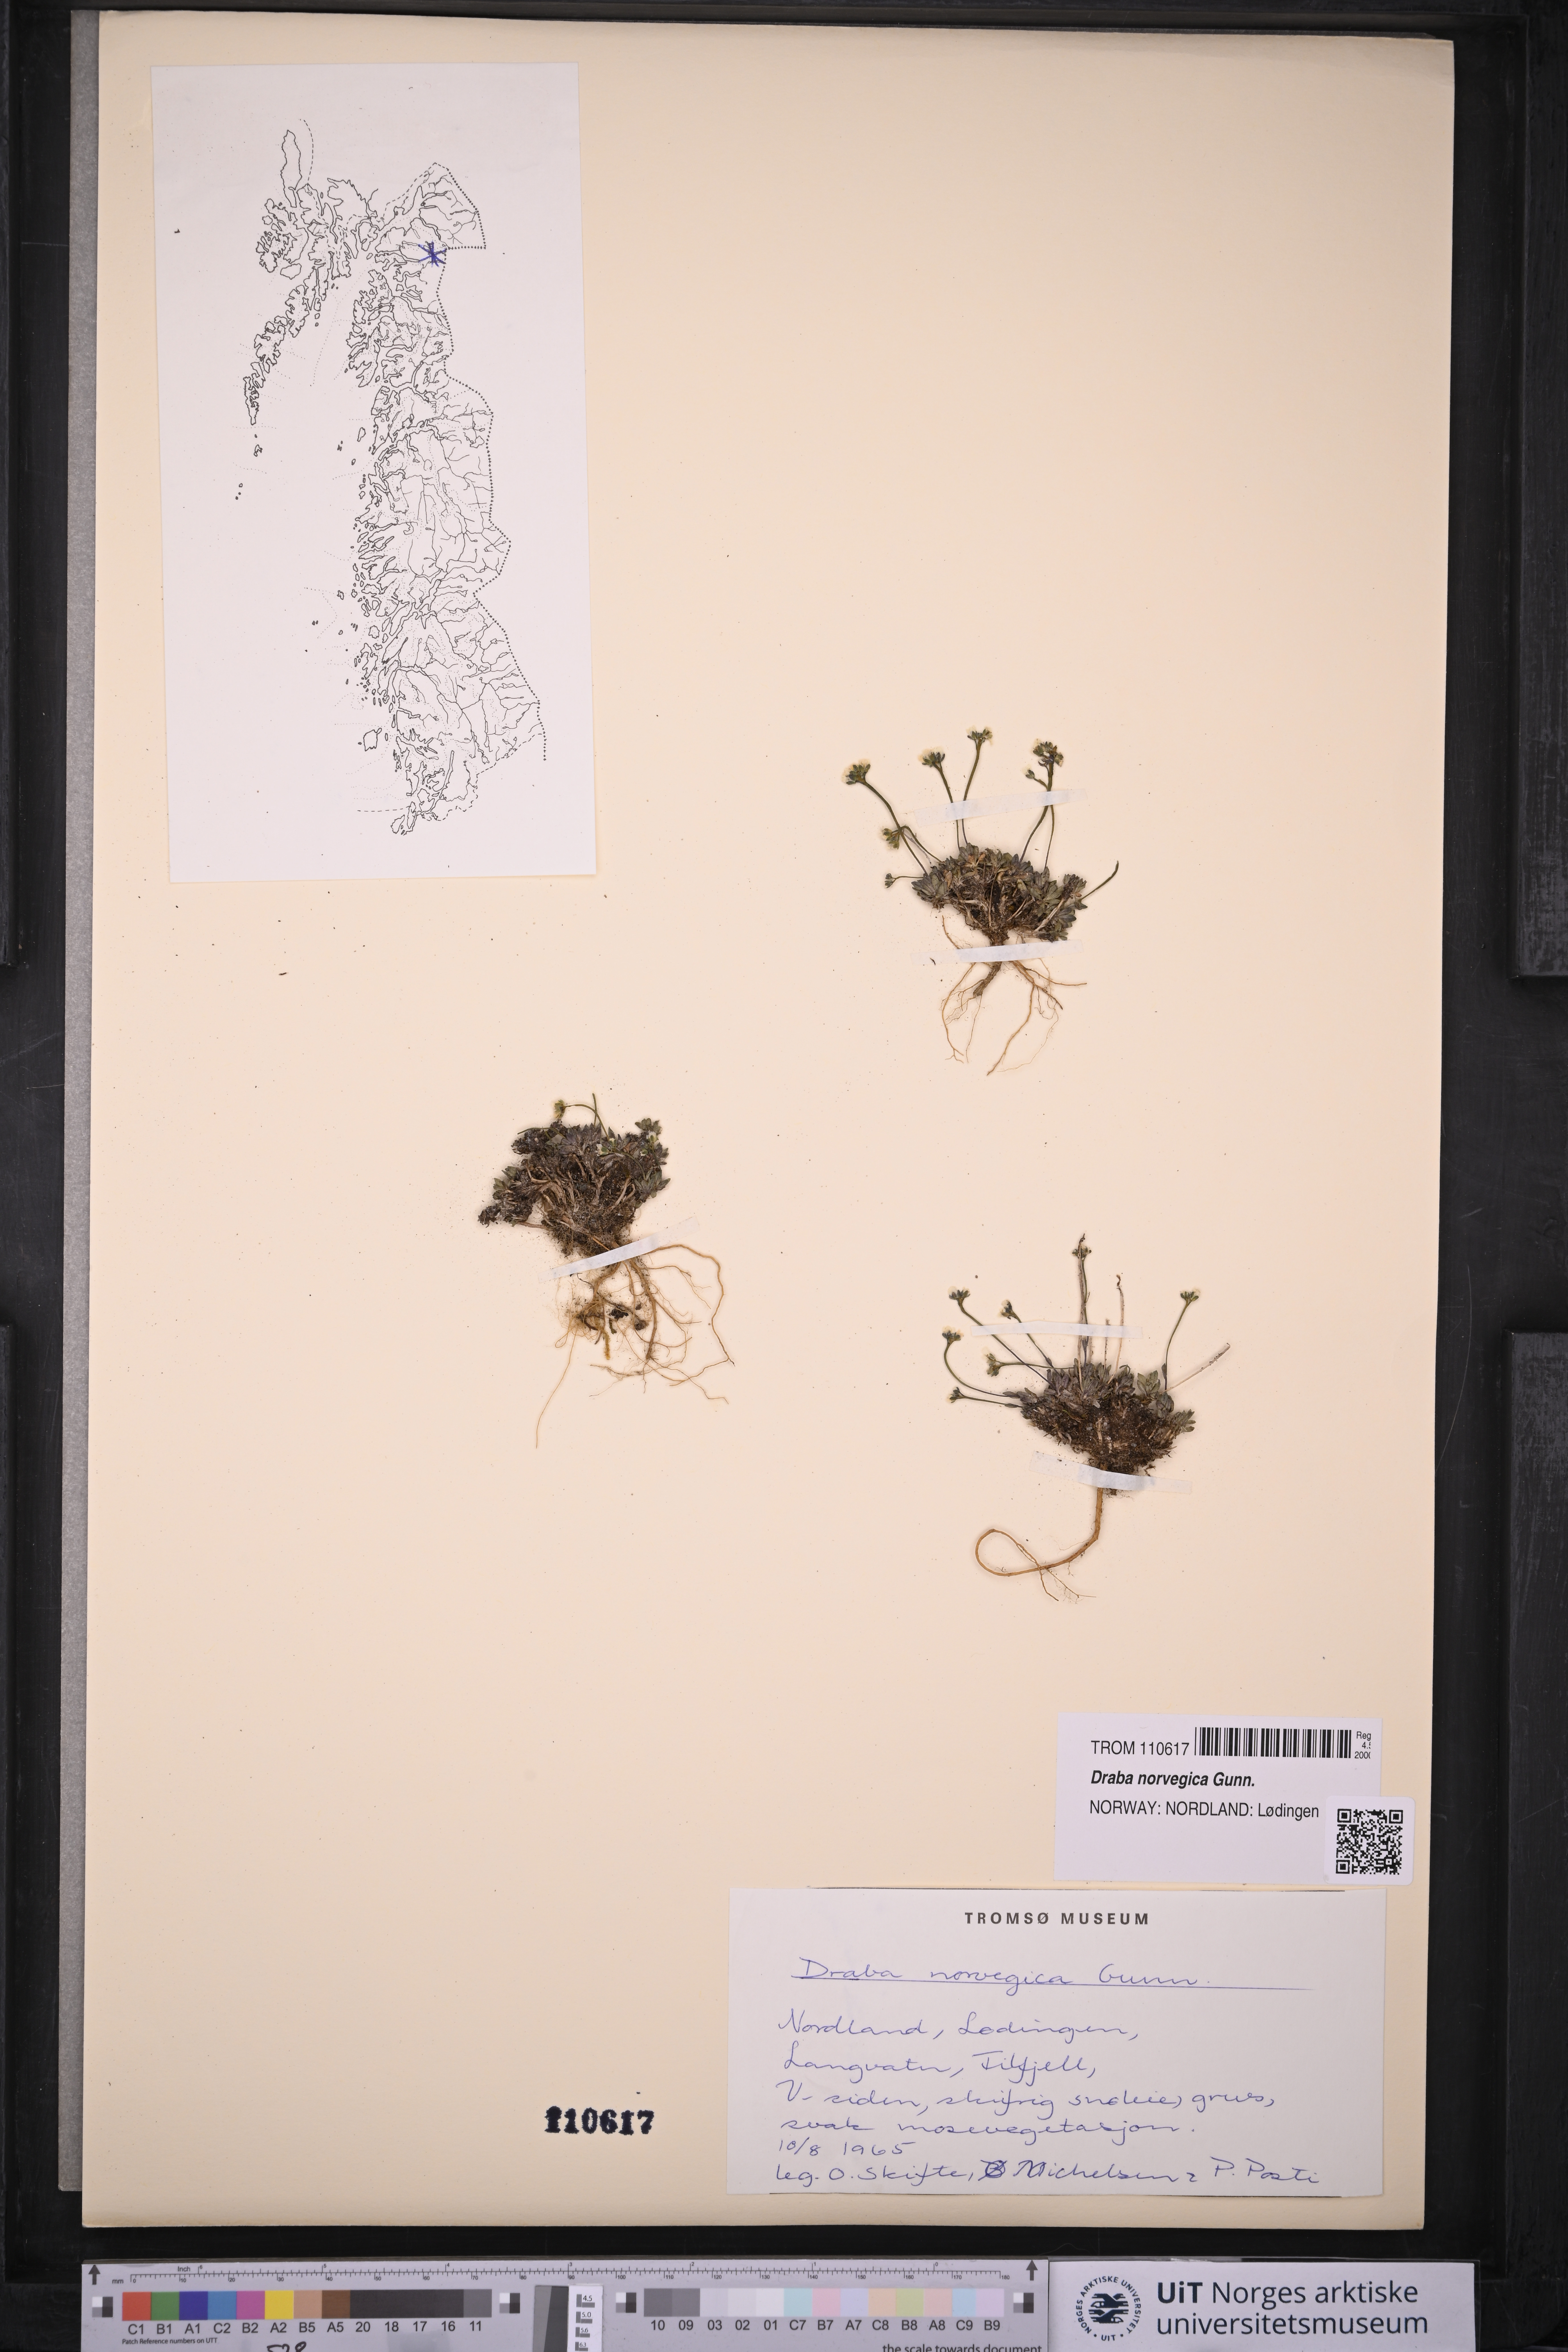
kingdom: Plantae
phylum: Tracheophyta
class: Magnoliopsida
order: Brassicales
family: Brassicaceae
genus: Draba
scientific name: Draba norvegica
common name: Rock whitlowgrass
